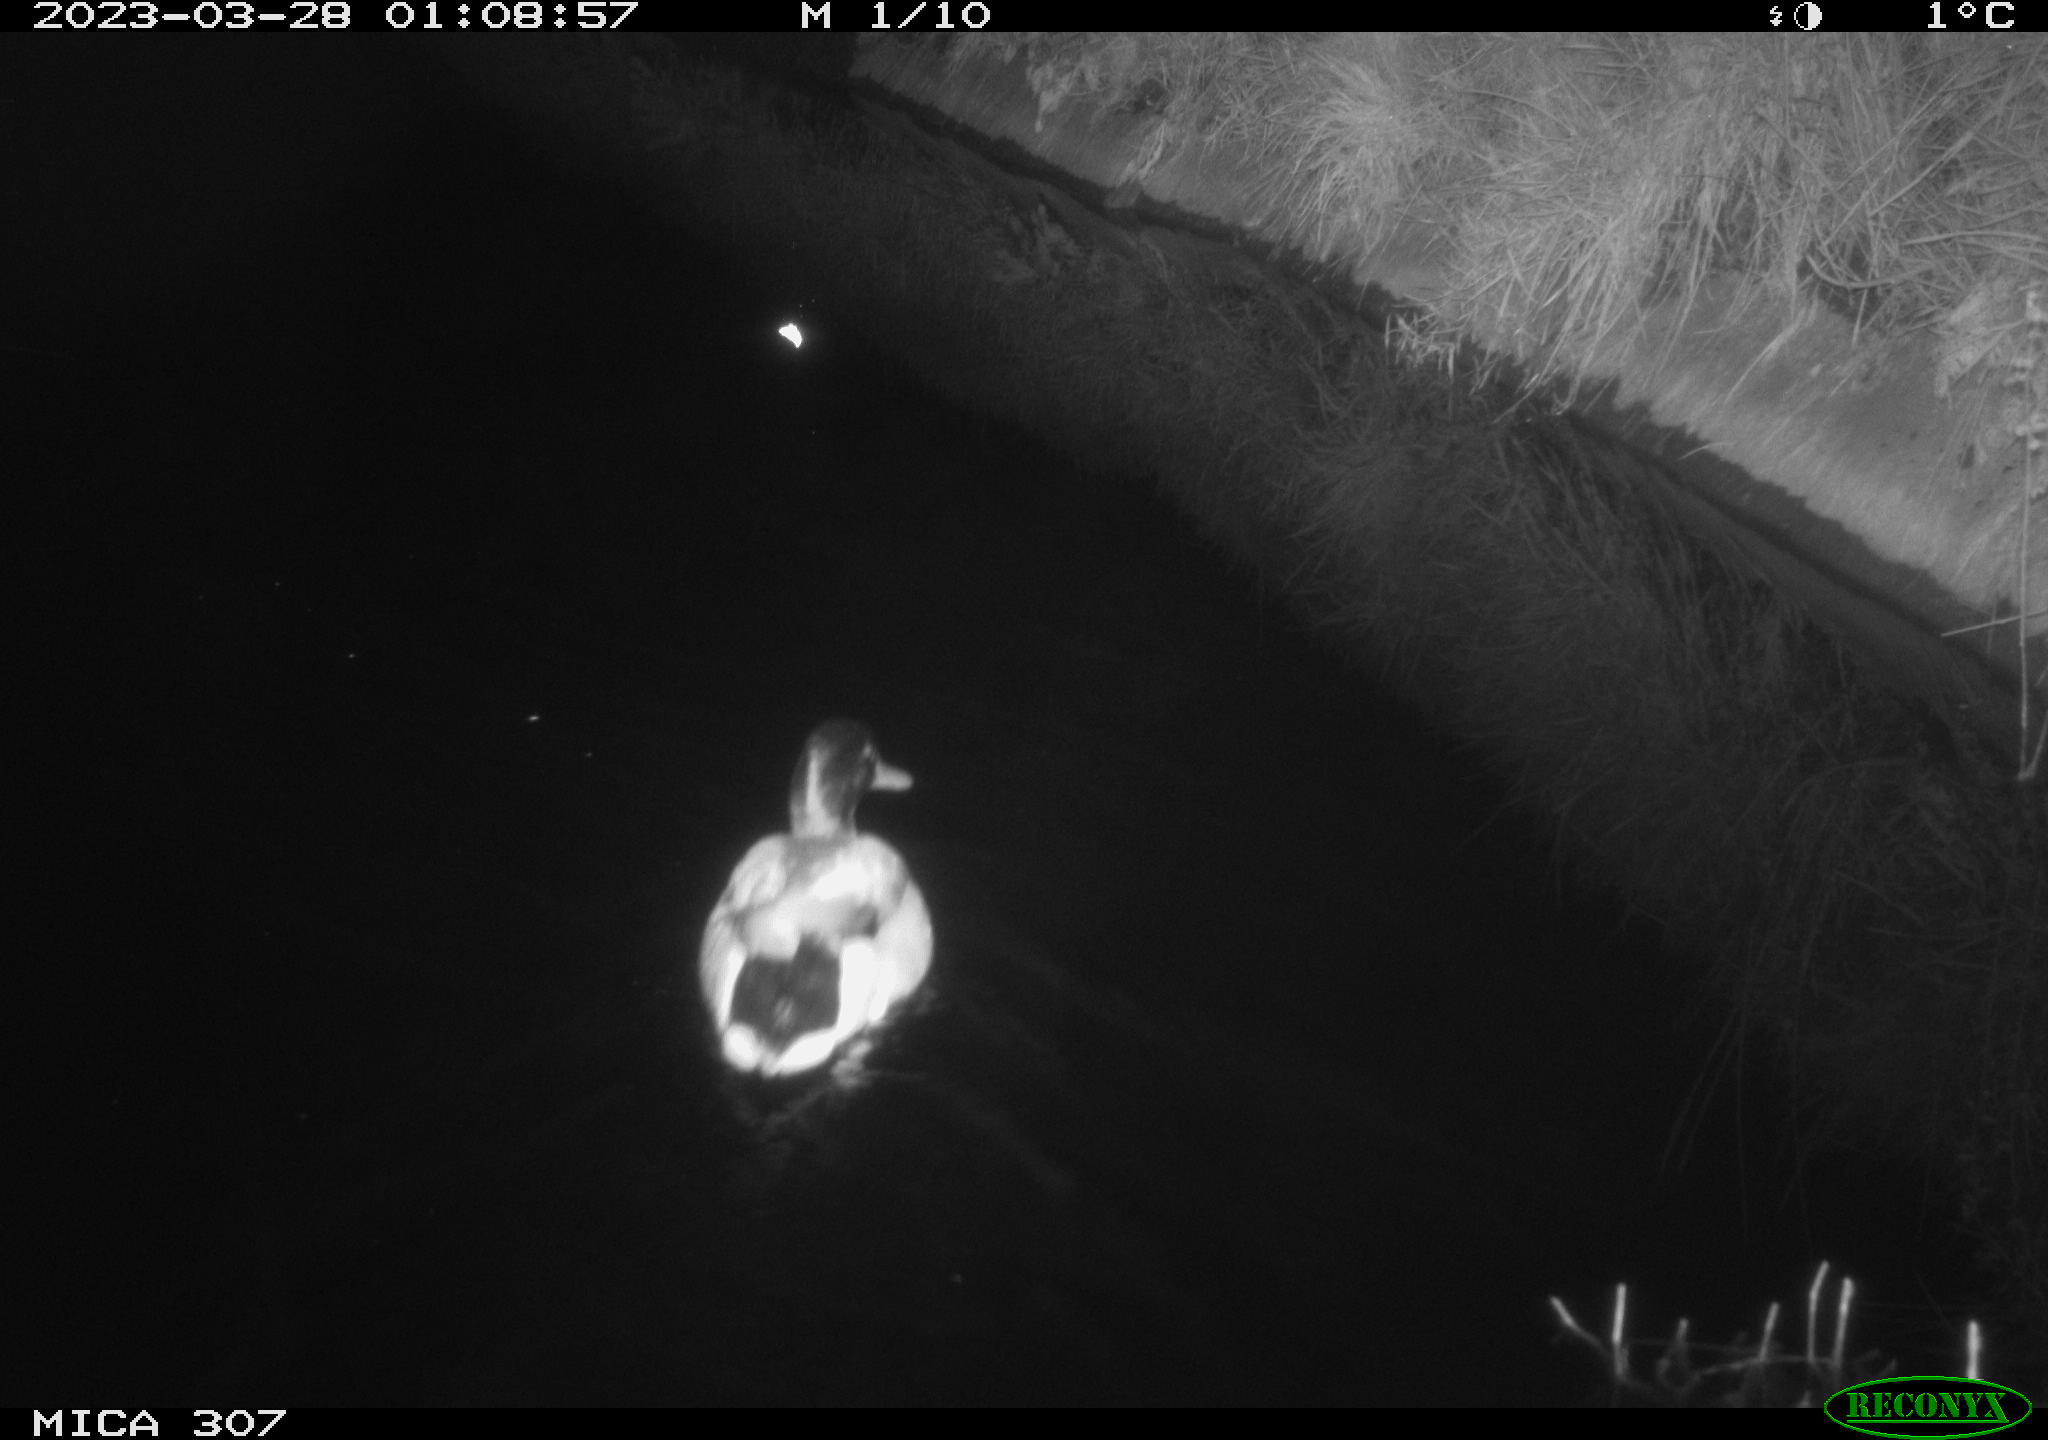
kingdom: Animalia
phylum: Chordata
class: Aves
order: Anseriformes
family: Anatidae
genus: Anas
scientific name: Anas
